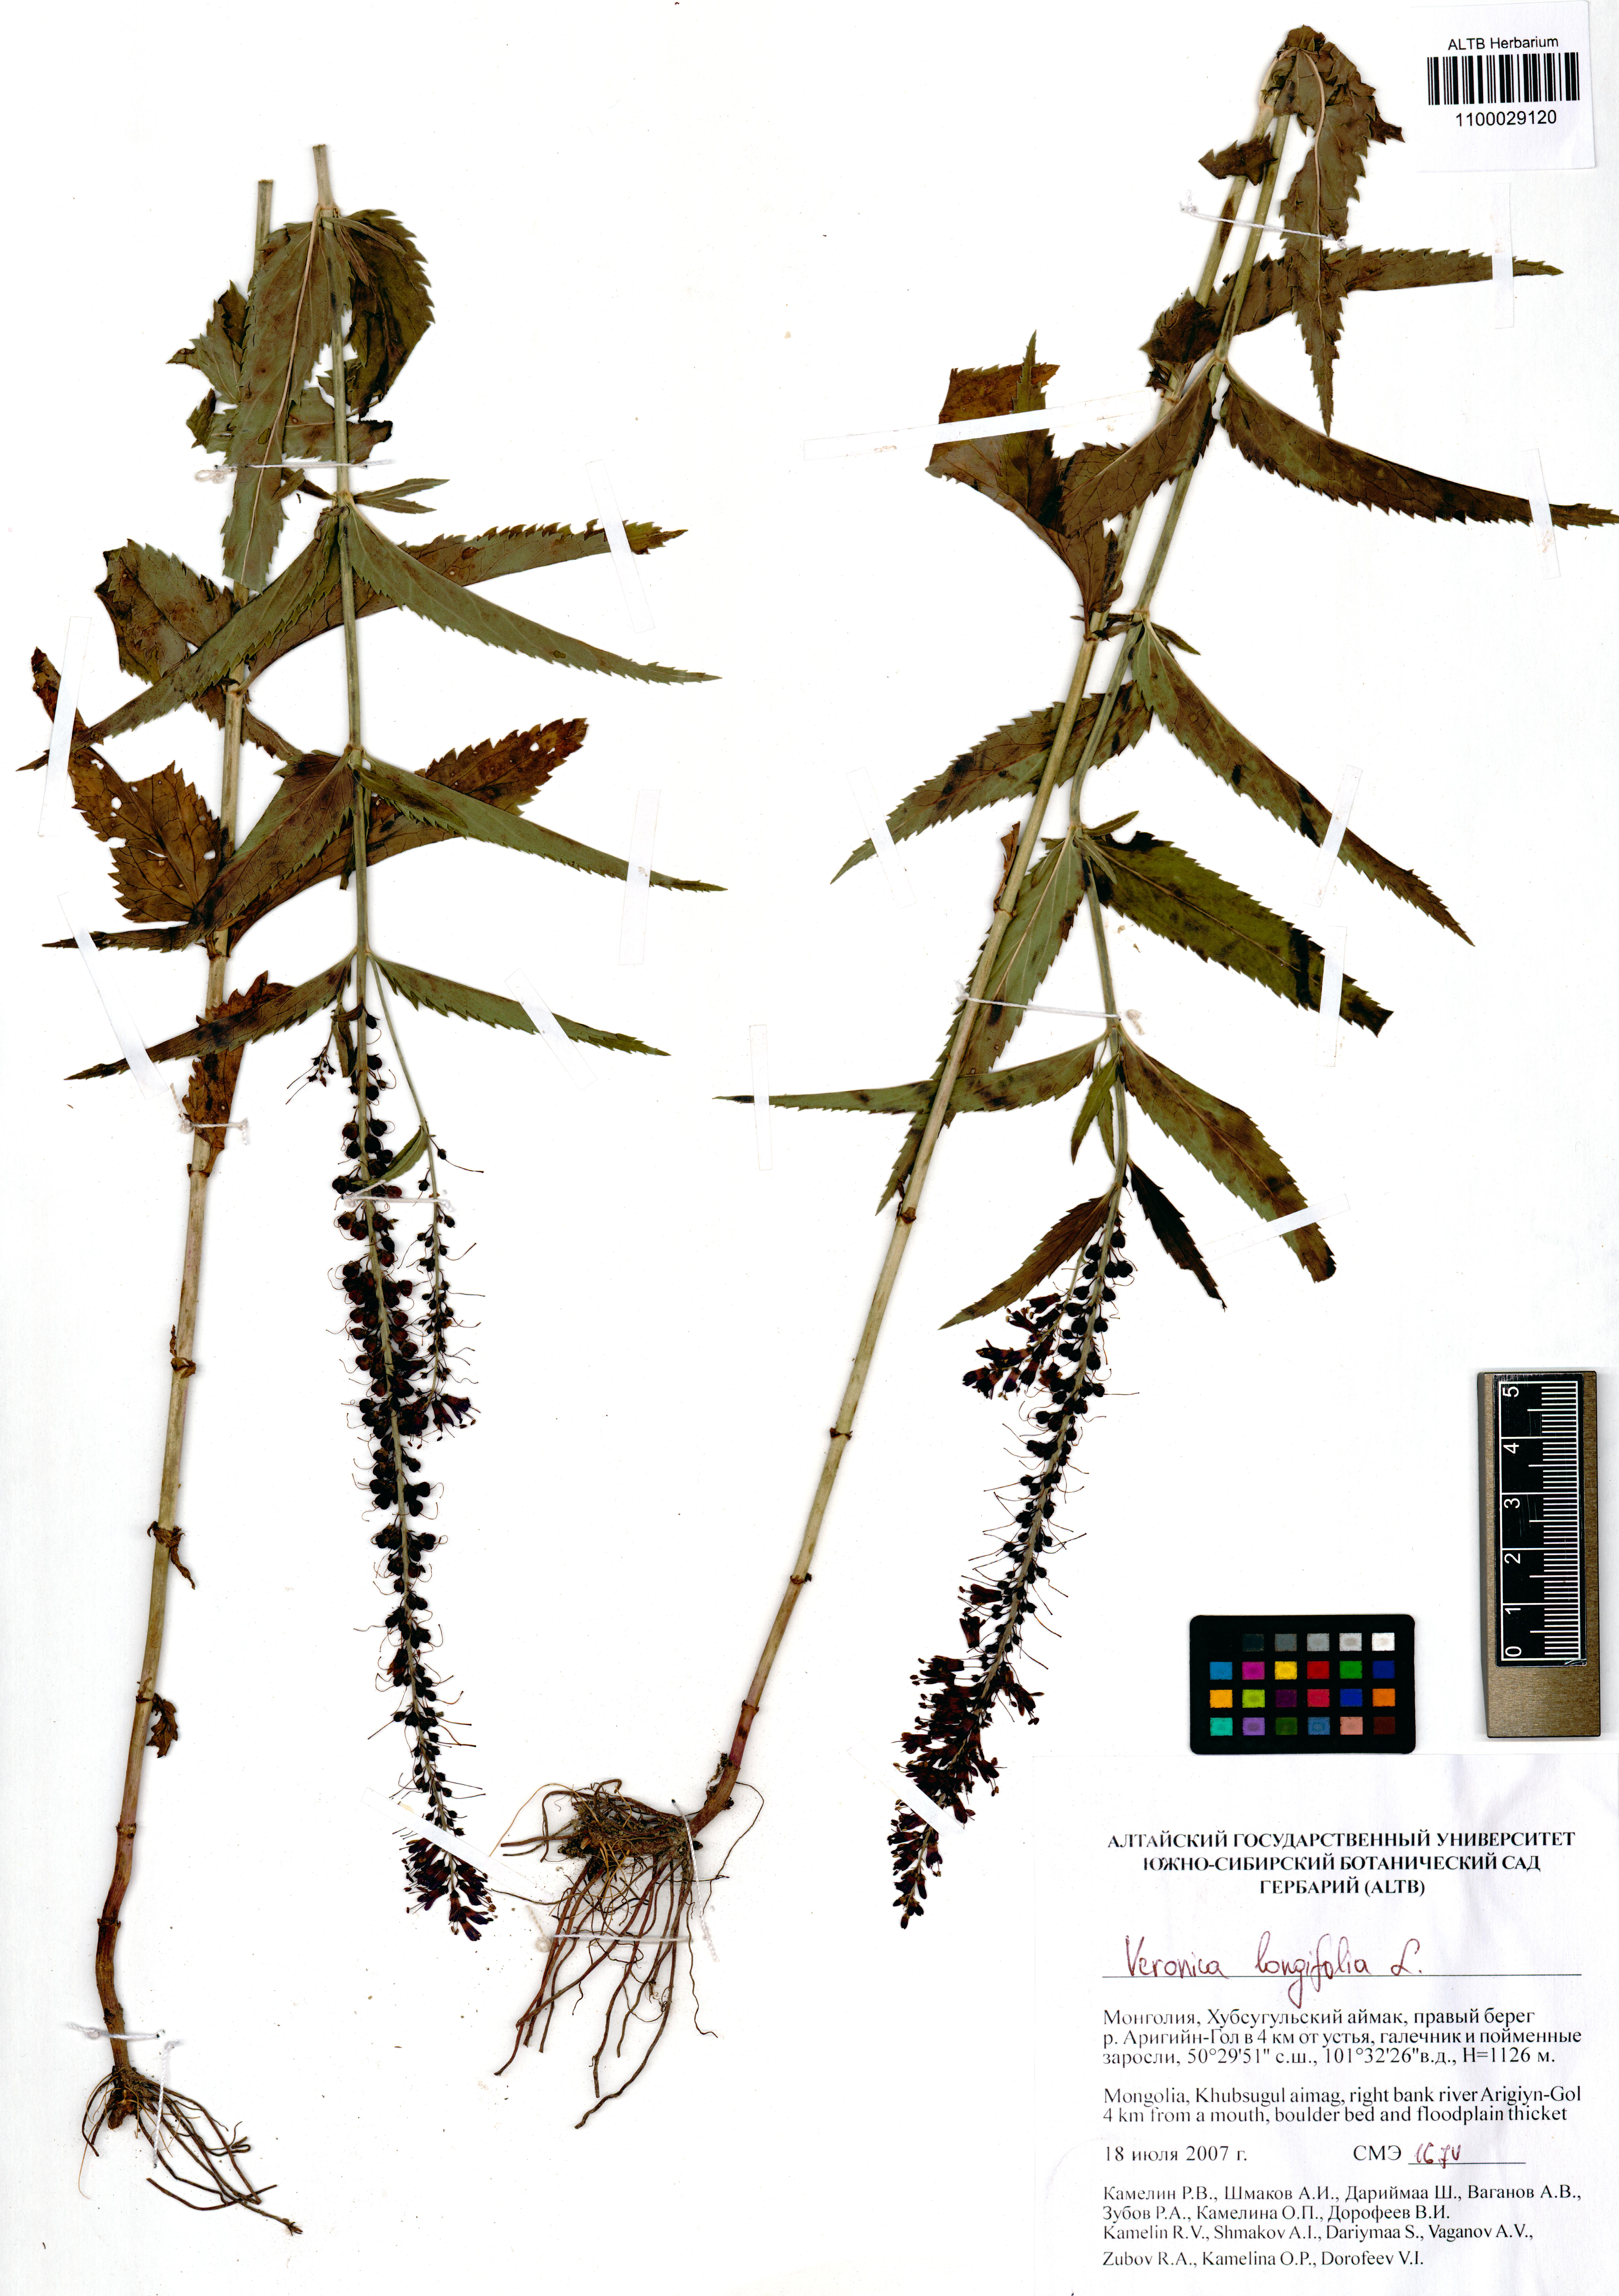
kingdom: Plantae
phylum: Tracheophyta
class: Magnoliopsida
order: Lamiales
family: Plantaginaceae
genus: Veronica
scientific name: Veronica pinnata
